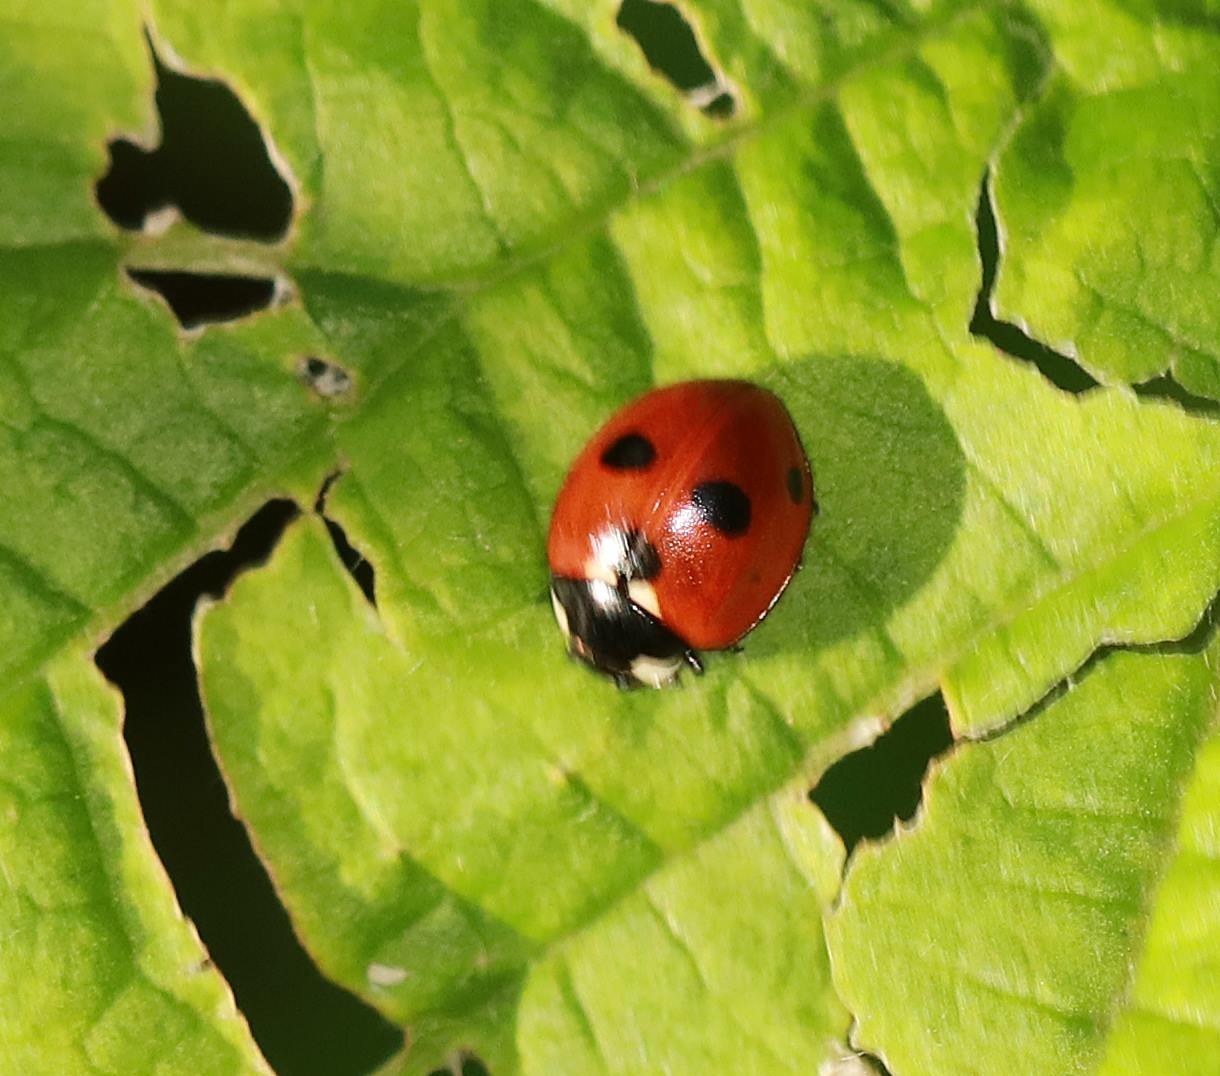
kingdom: Animalia
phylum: Arthropoda
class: Insecta
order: Coleoptera
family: Coccinellidae
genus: Coccinella
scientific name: Coccinella quinquepunctata
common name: Femplettet mariehøne
